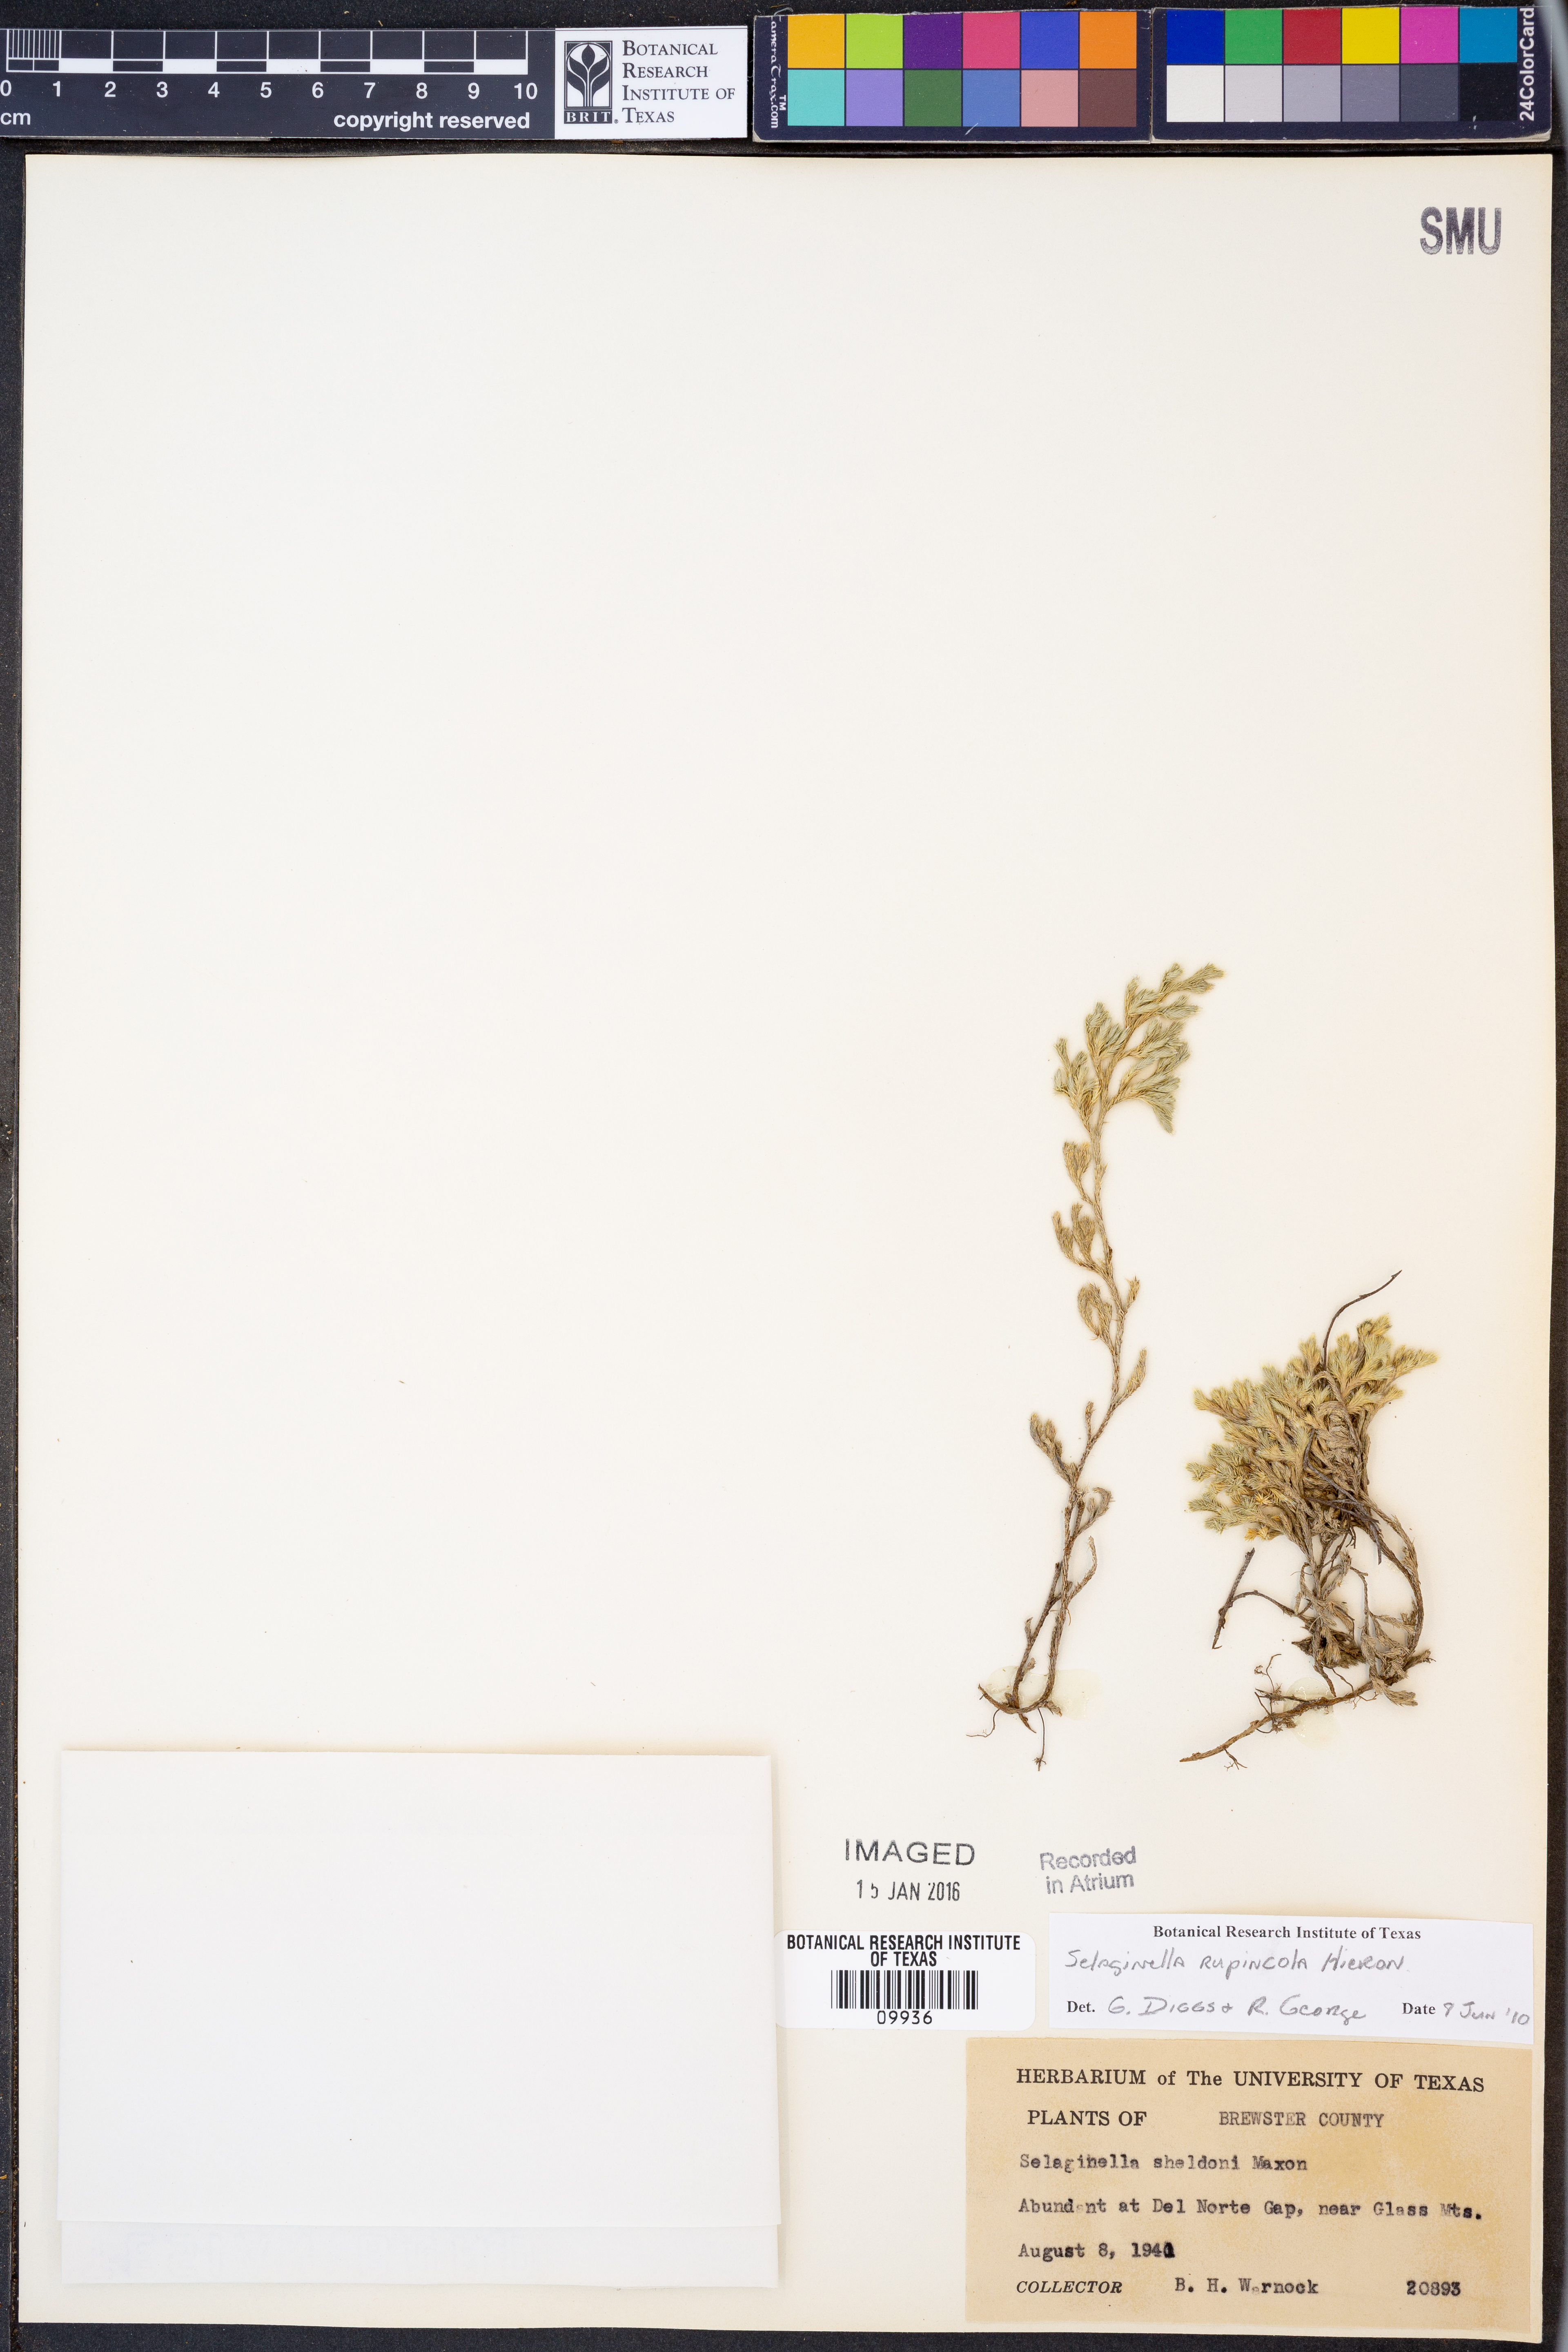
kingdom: Plantae
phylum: Tracheophyta
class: Lycopodiopsida
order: Selaginellales
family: Selaginellaceae
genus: Selaginella
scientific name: Selaginella rupincola
